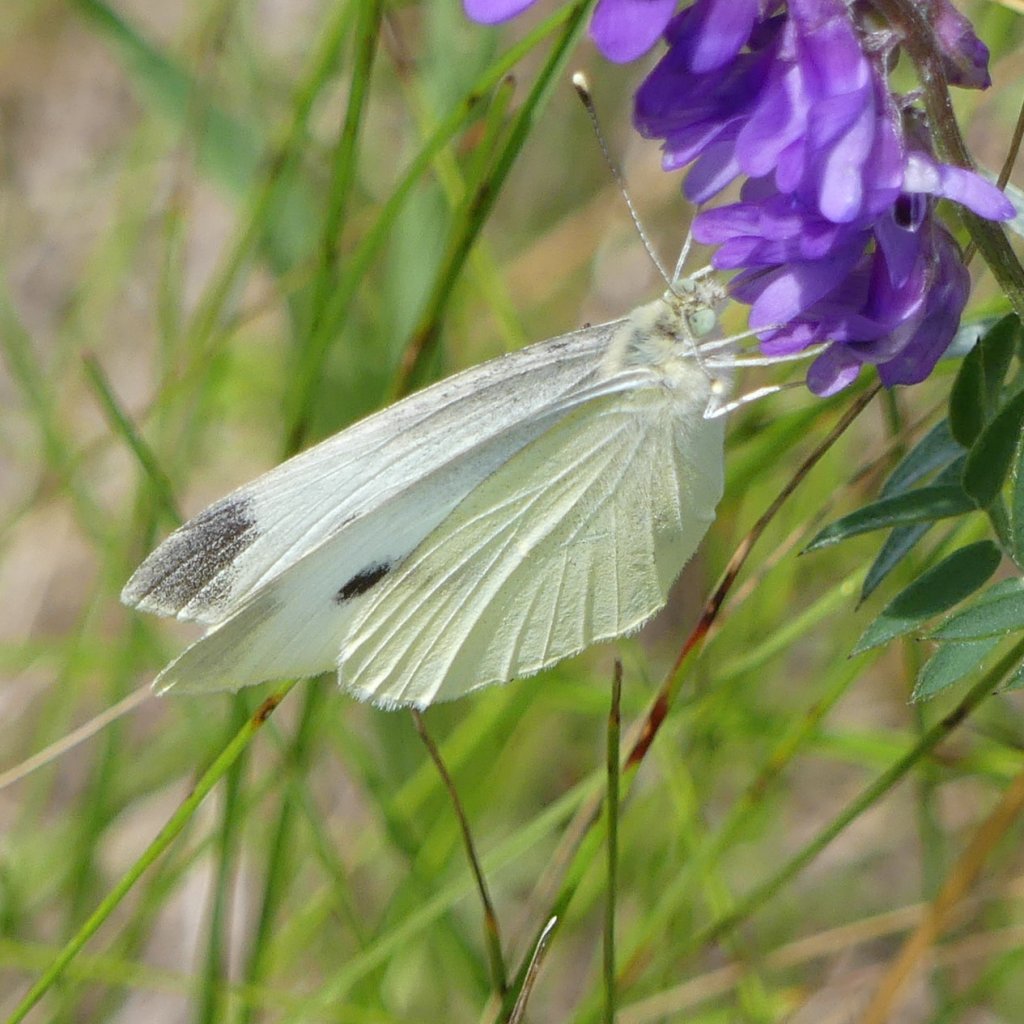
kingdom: Animalia
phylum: Arthropoda
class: Insecta
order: Lepidoptera
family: Pieridae
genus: Pieris
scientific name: Pieris rapae
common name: Cabbage White
